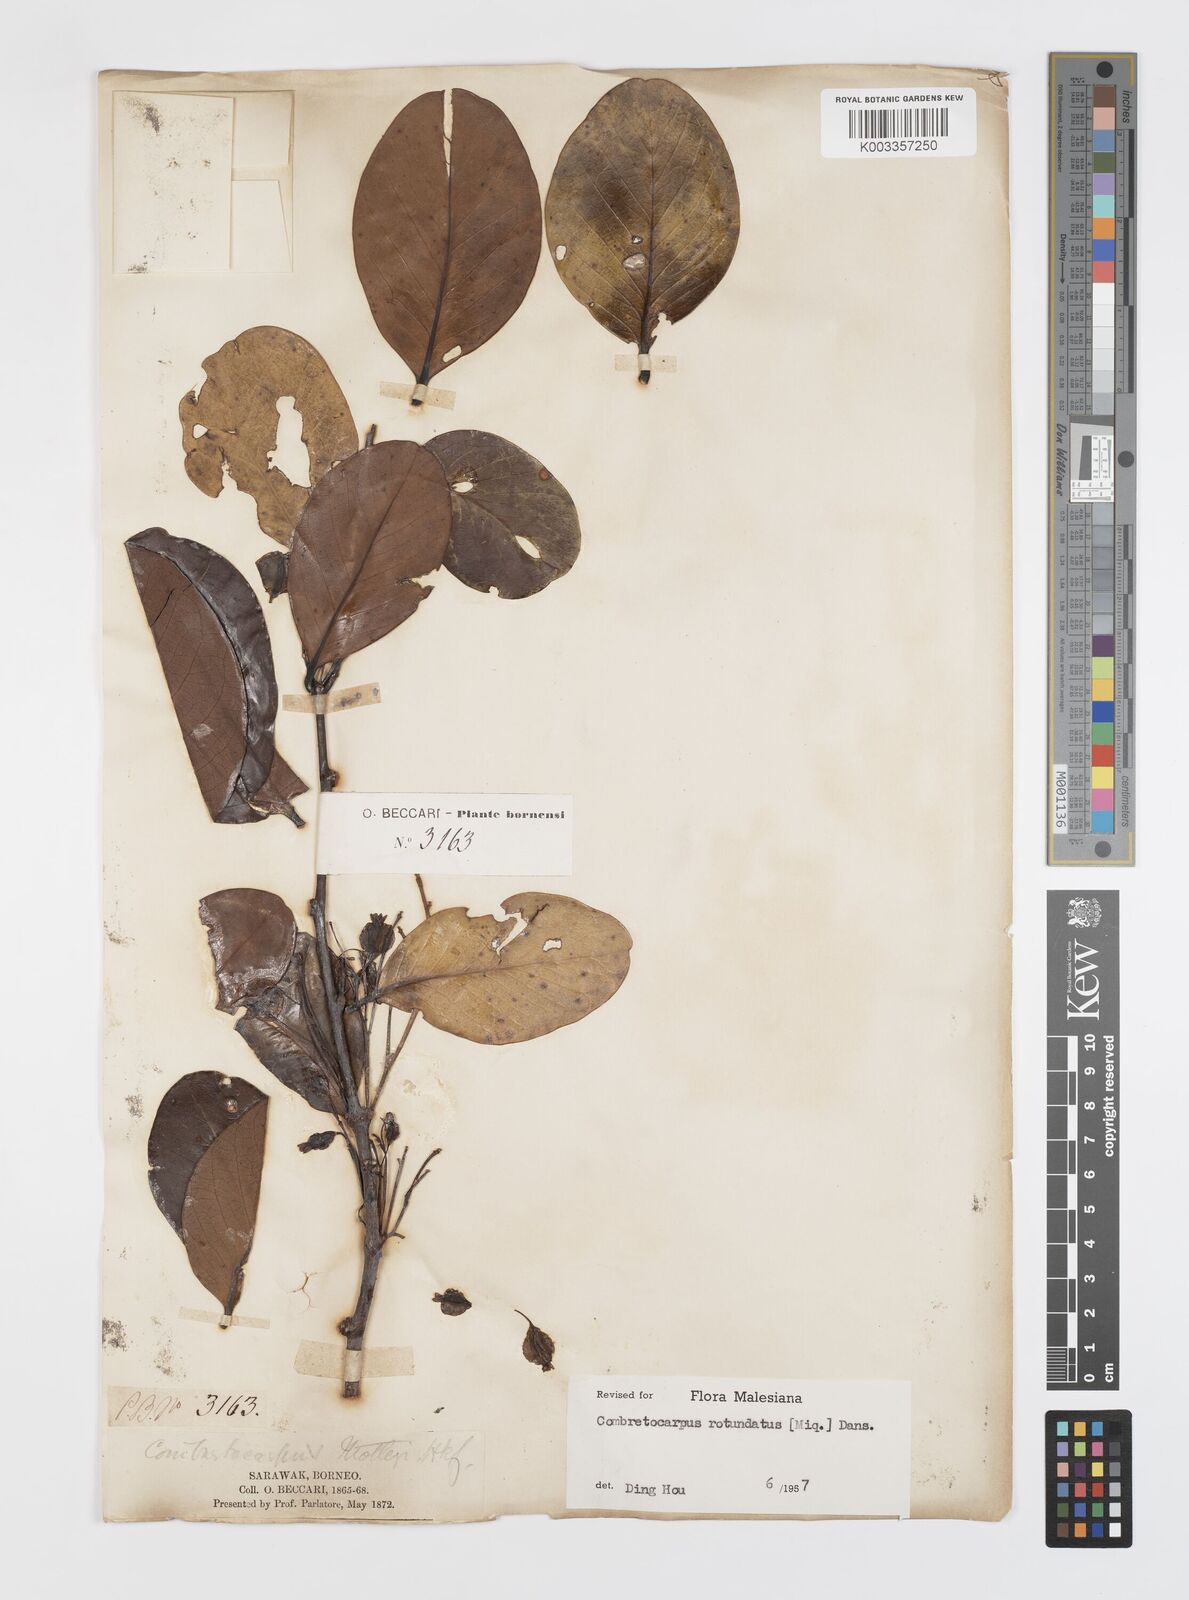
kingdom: Plantae
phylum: Tracheophyta
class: Magnoliopsida
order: Cucurbitales
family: Anisophylleaceae
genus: Combretocarpus
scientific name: Combretocarpus rotundatus
